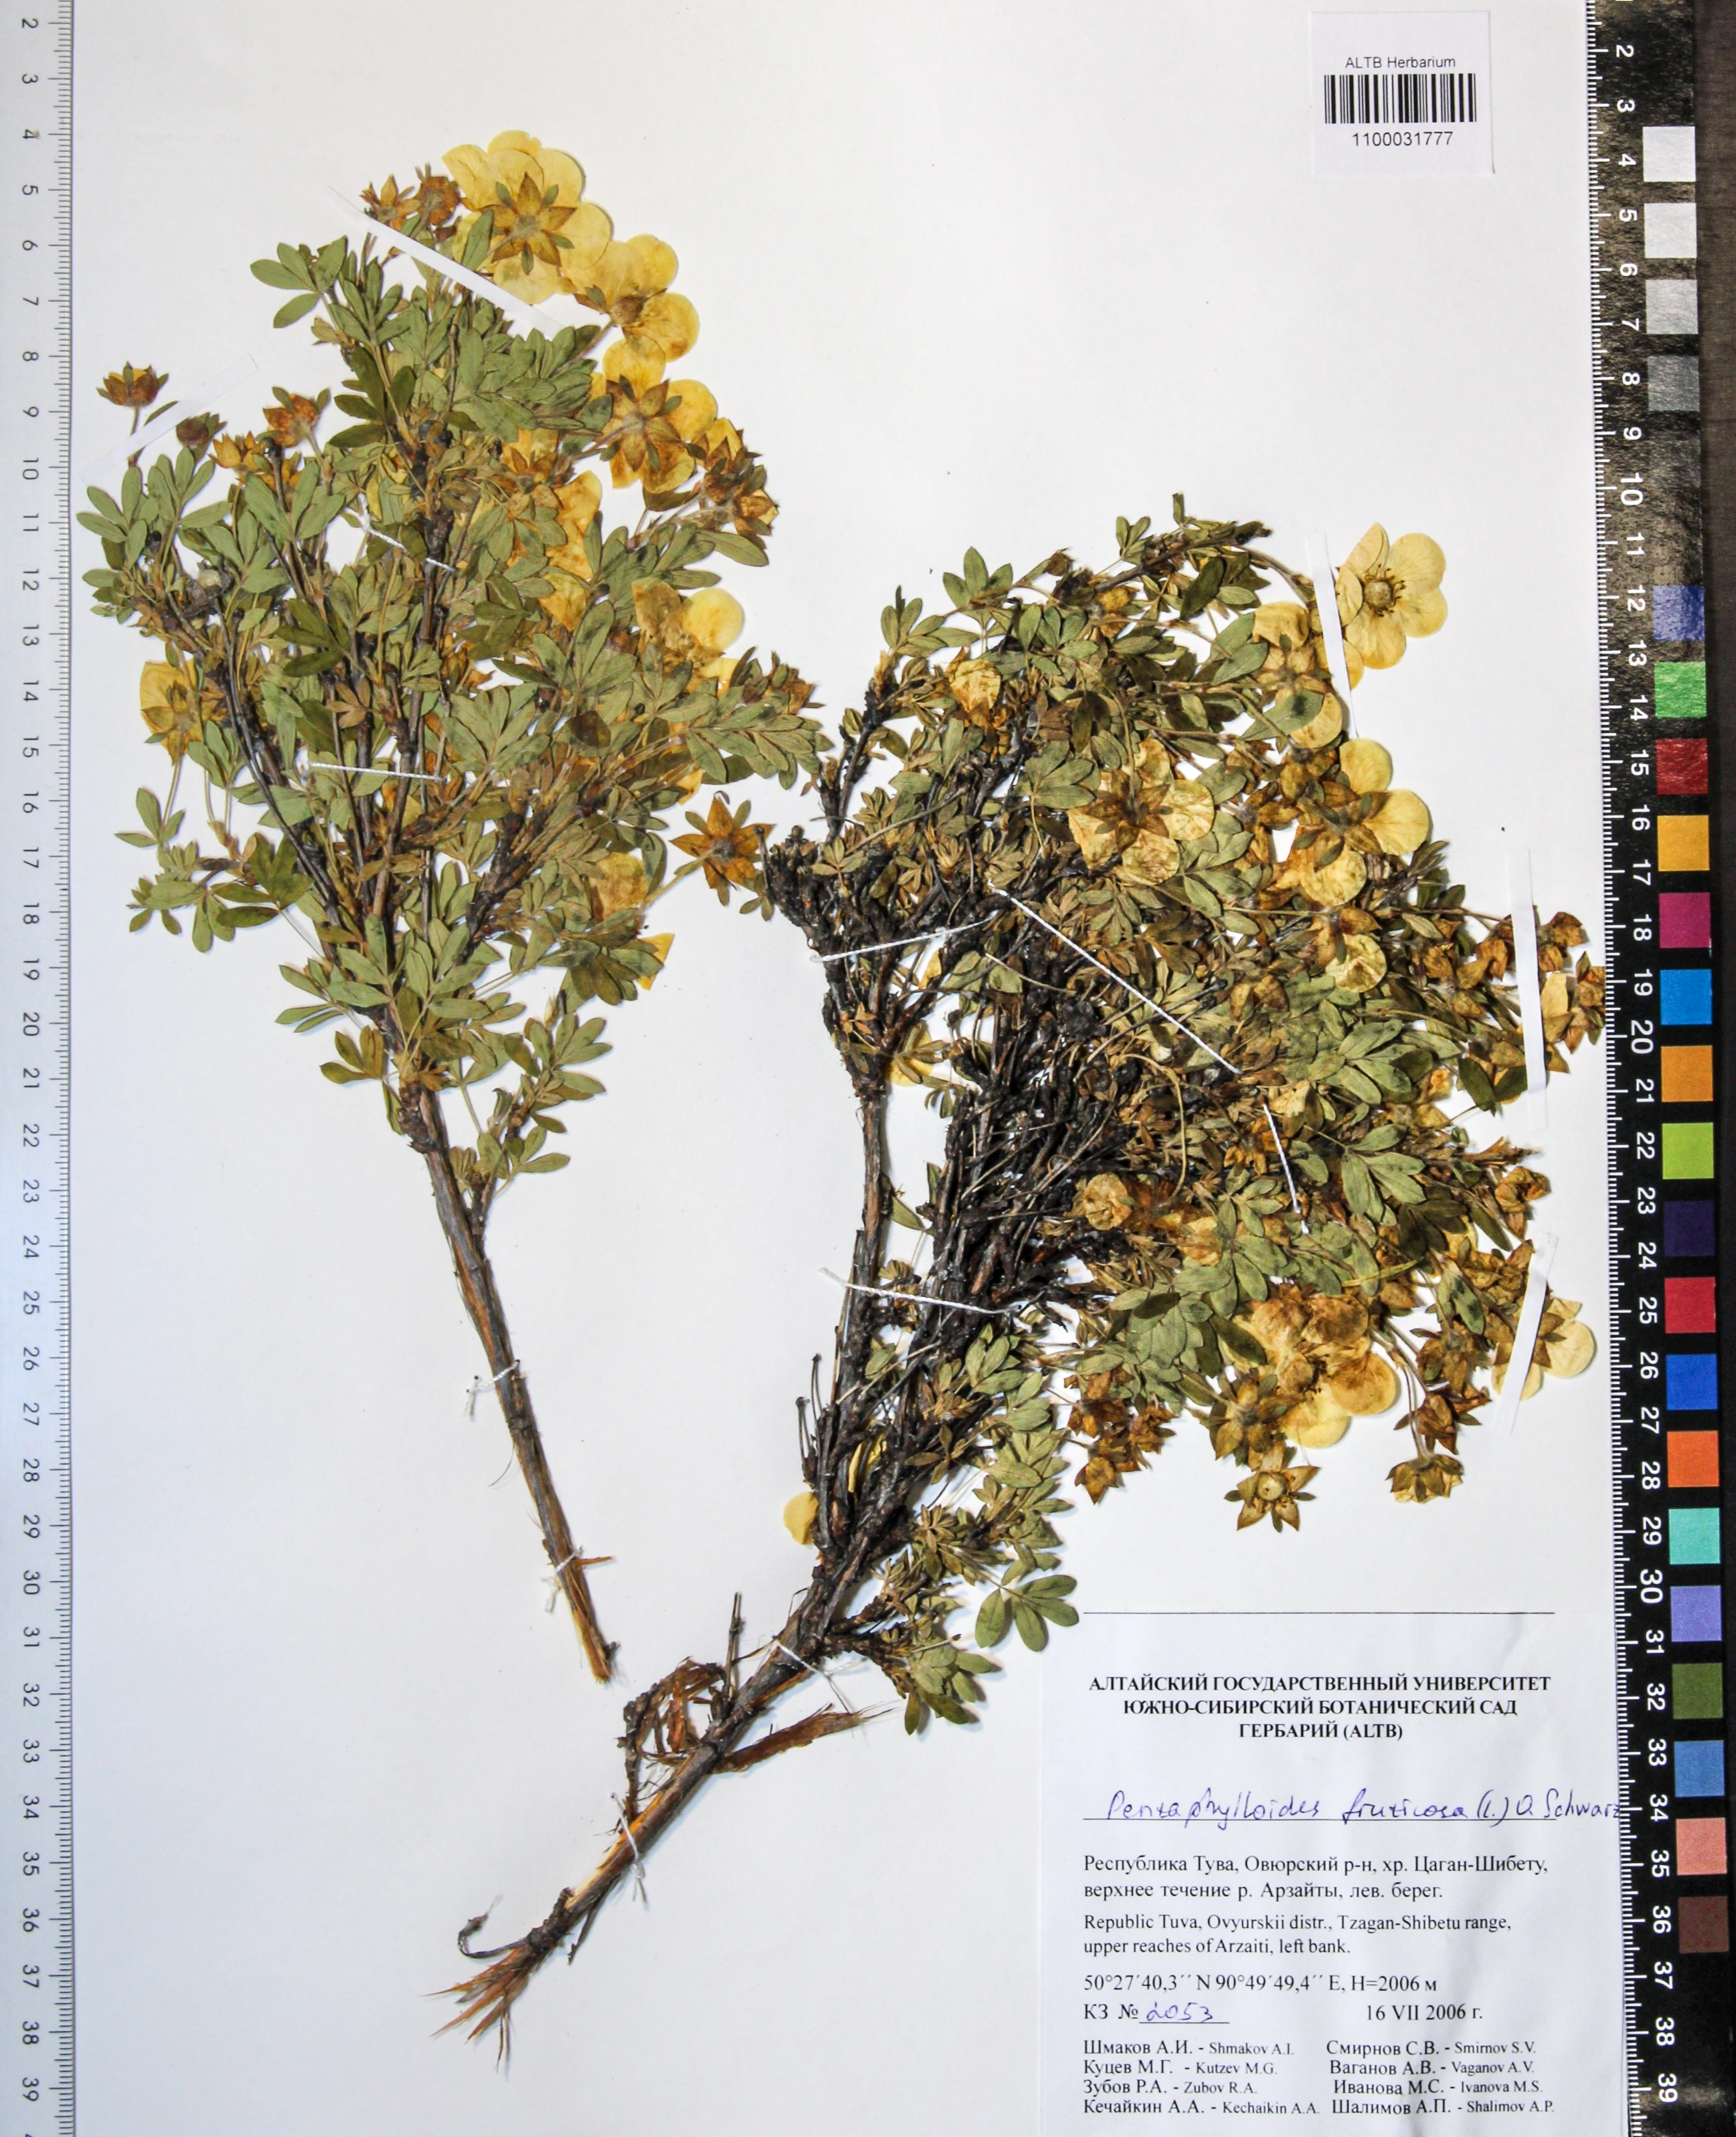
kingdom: Plantae
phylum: Tracheophyta
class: Magnoliopsida
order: Rosales
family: Rosaceae
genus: Dasiphora
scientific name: Dasiphora fruticosa
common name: Shrubby cinquefoil
